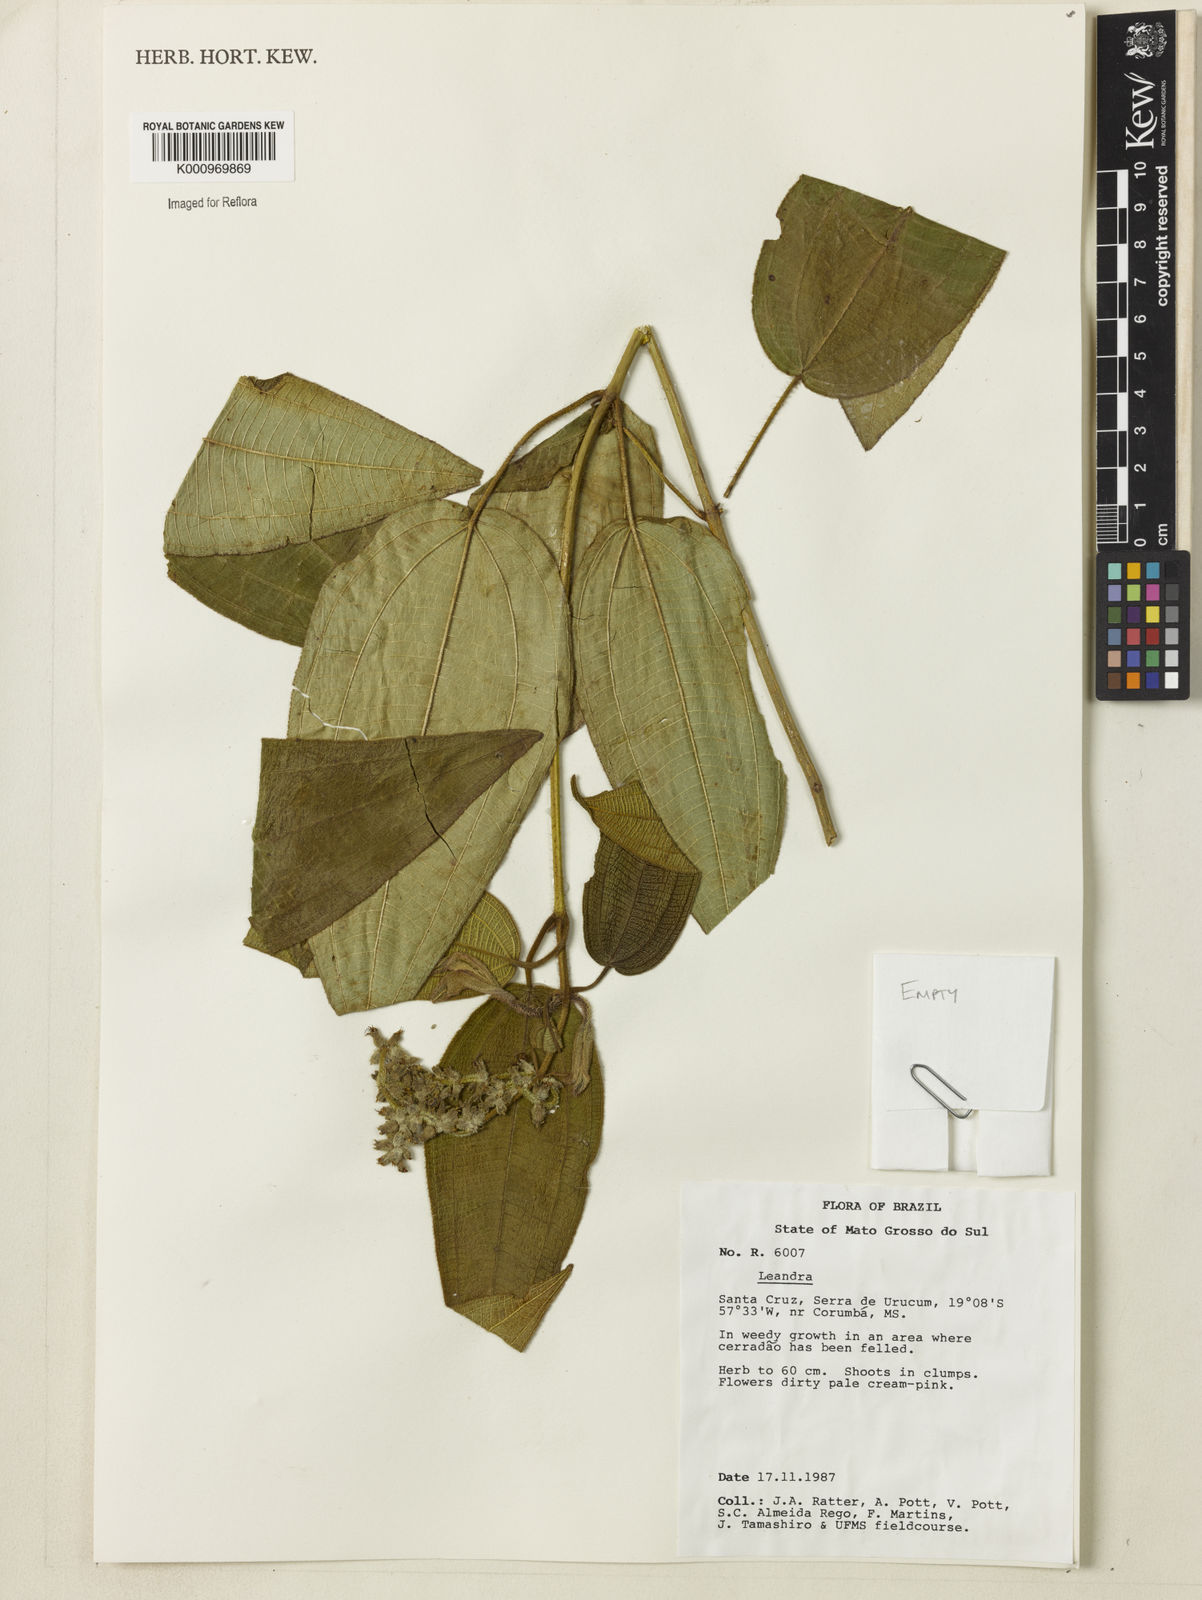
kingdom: Plantae
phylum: Tracheophyta
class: Magnoliopsida
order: Myrtales
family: Melastomataceae
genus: Miconia
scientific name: Miconia
